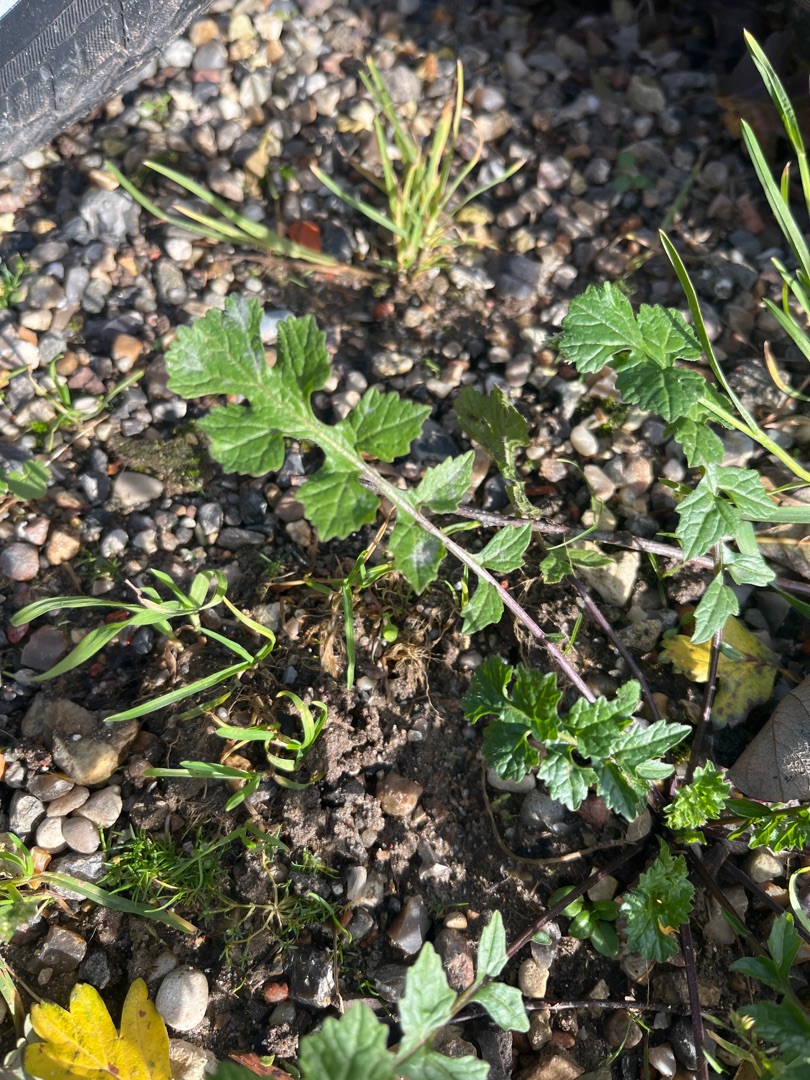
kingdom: Plantae
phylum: Tracheophyta
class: Magnoliopsida
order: Brassicales
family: Brassicaceae
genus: Sisymbrium
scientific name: Sisymbrium officinale
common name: Rank vejsennep
